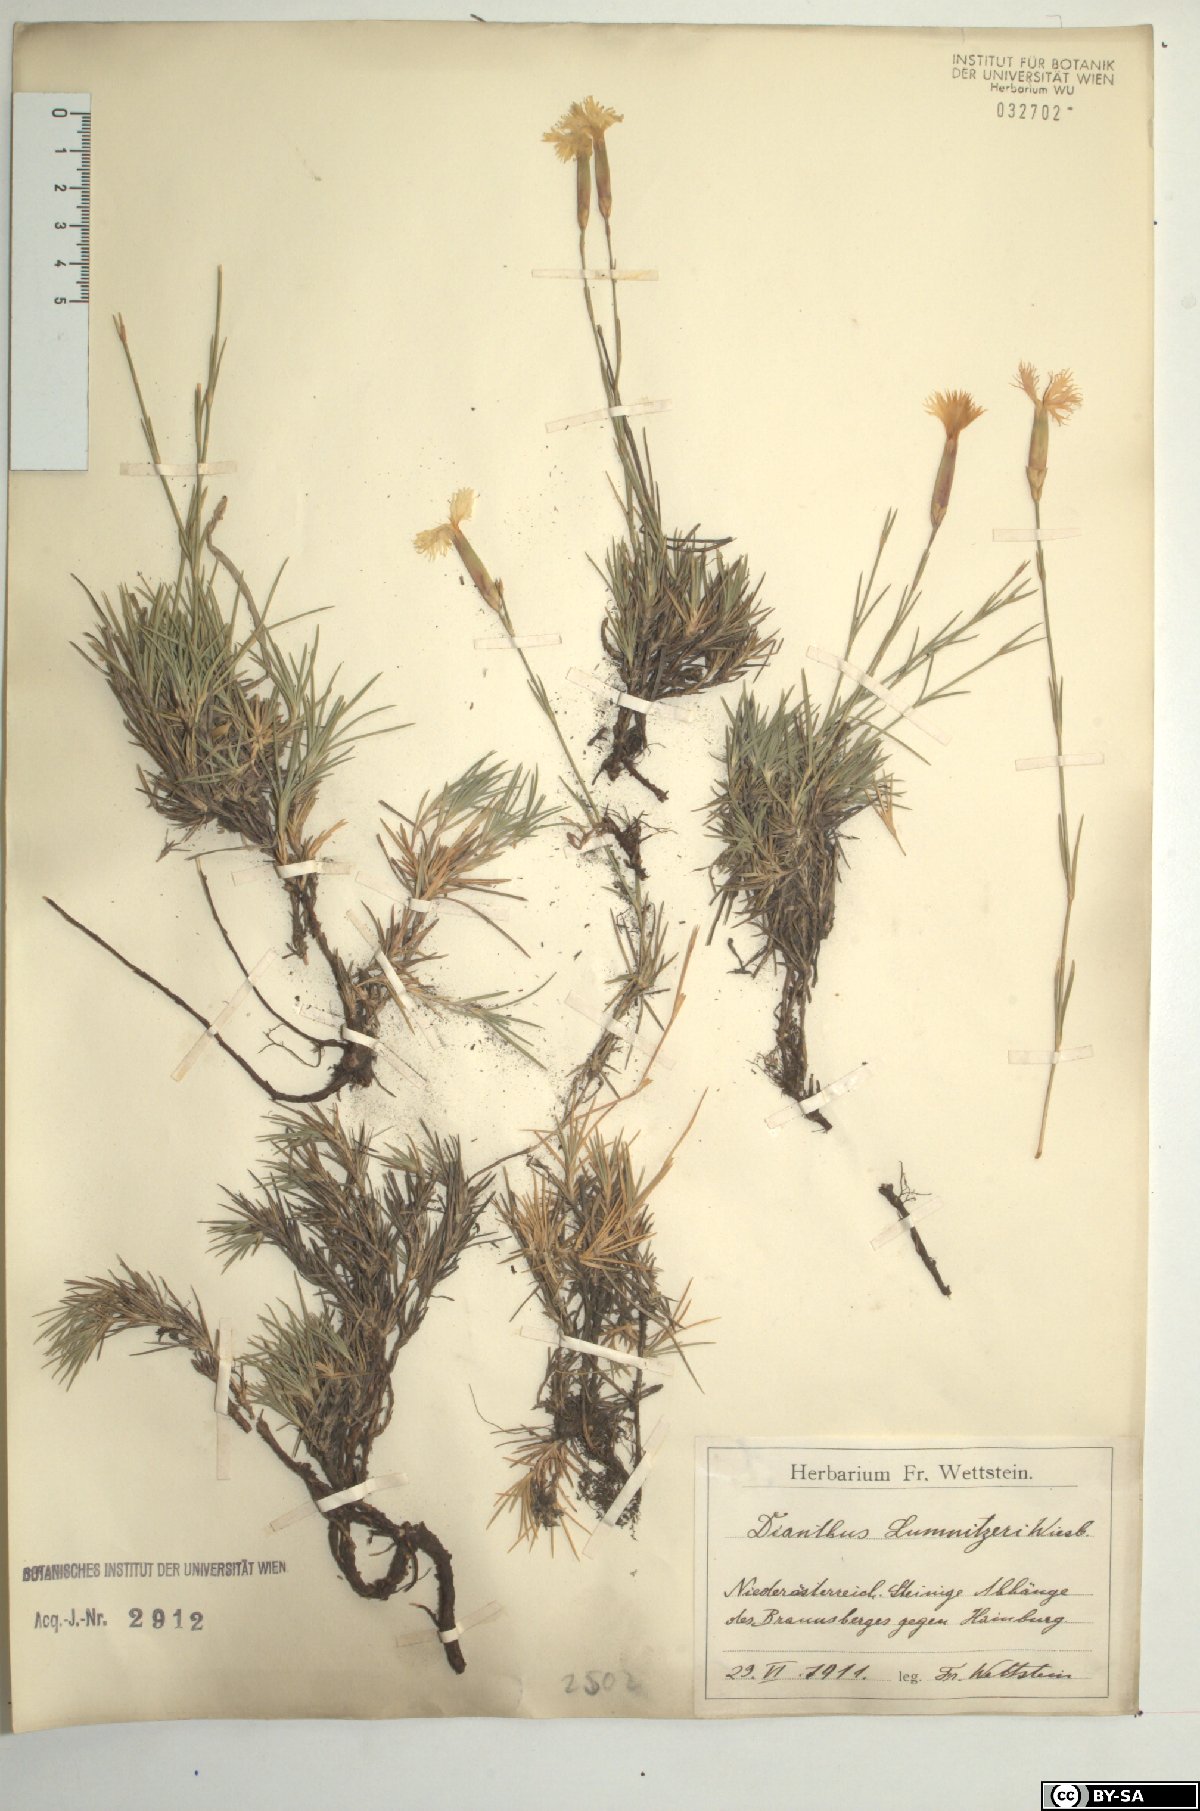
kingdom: Plantae
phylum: Tracheophyta
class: Magnoliopsida
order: Caryophyllales
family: Caryophyllaceae
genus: Dianthus
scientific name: Dianthus praecox
